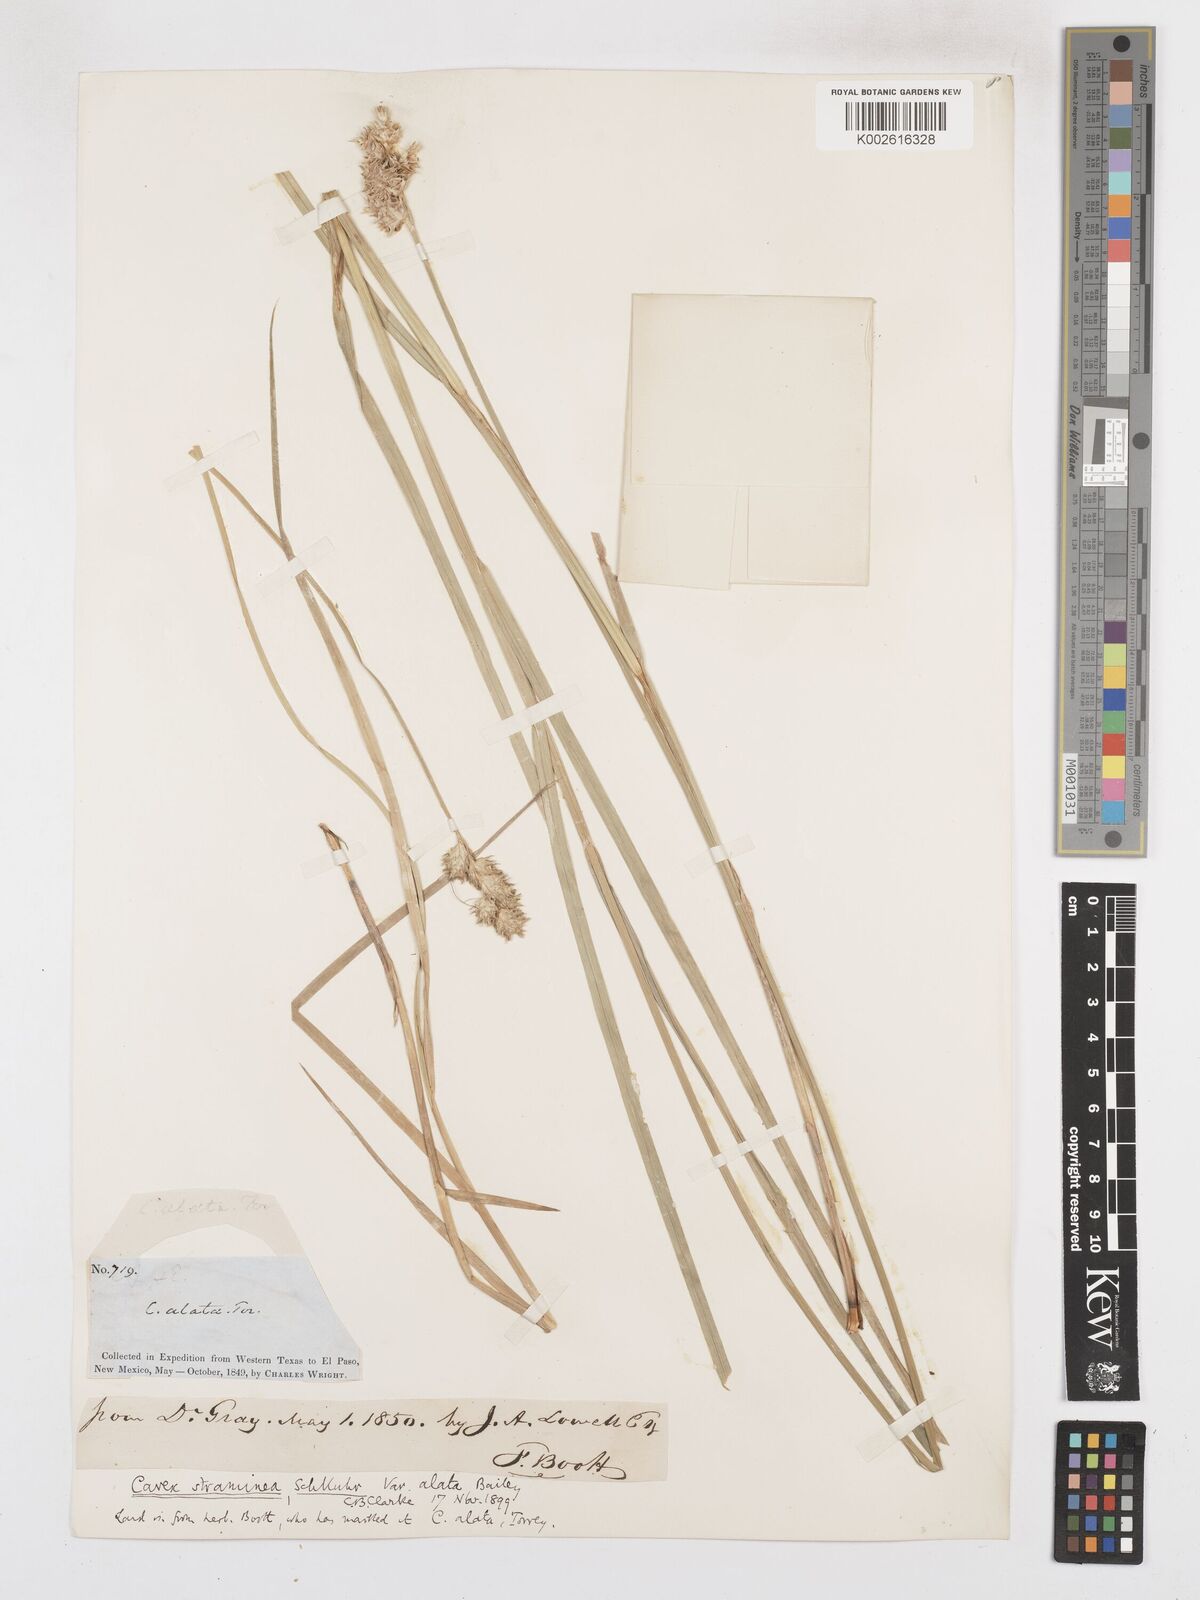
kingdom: Plantae
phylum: Tracheophyta
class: Liliopsida
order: Poales
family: Cyperaceae
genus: Carex
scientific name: Carex alata
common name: Broad-winged sedge
